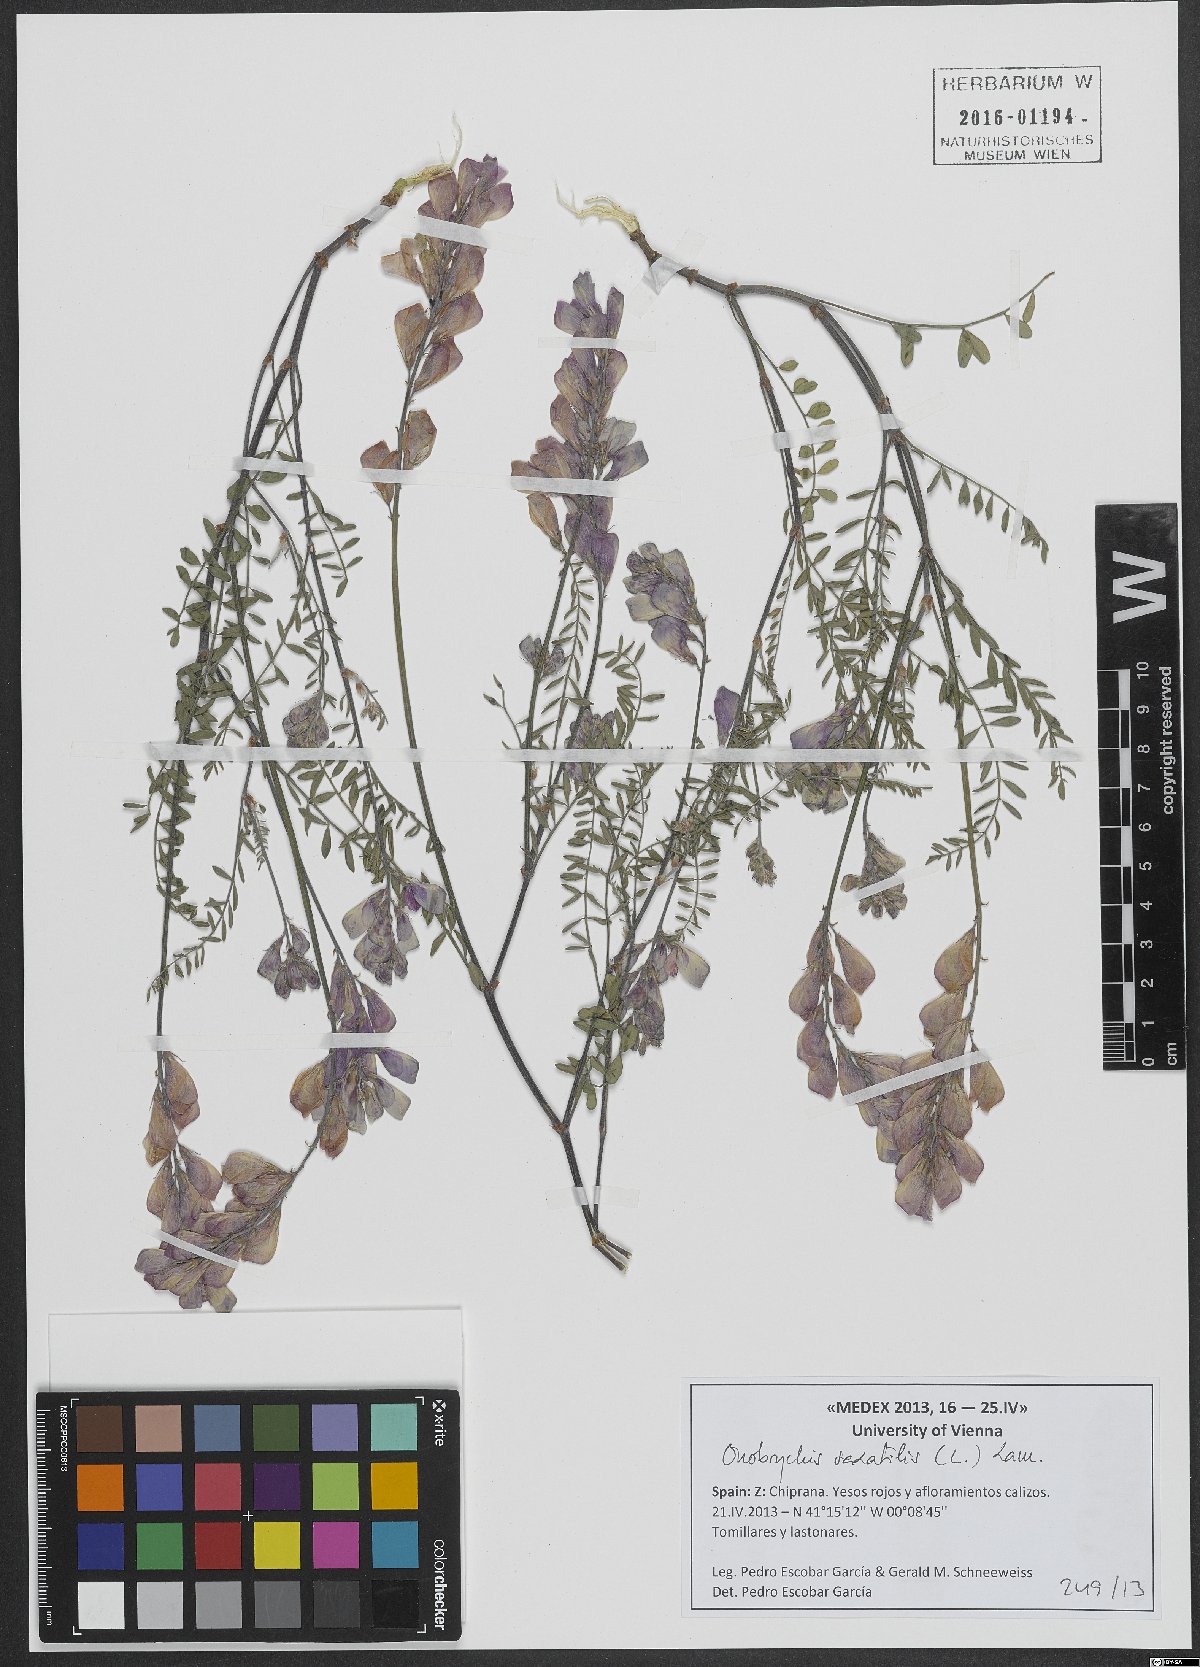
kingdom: Plantae
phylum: Tracheophyta
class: Magnoliopsida
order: Fabales
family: Fabaceae
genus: Onobrychis
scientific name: Onobrychis saxatilis
